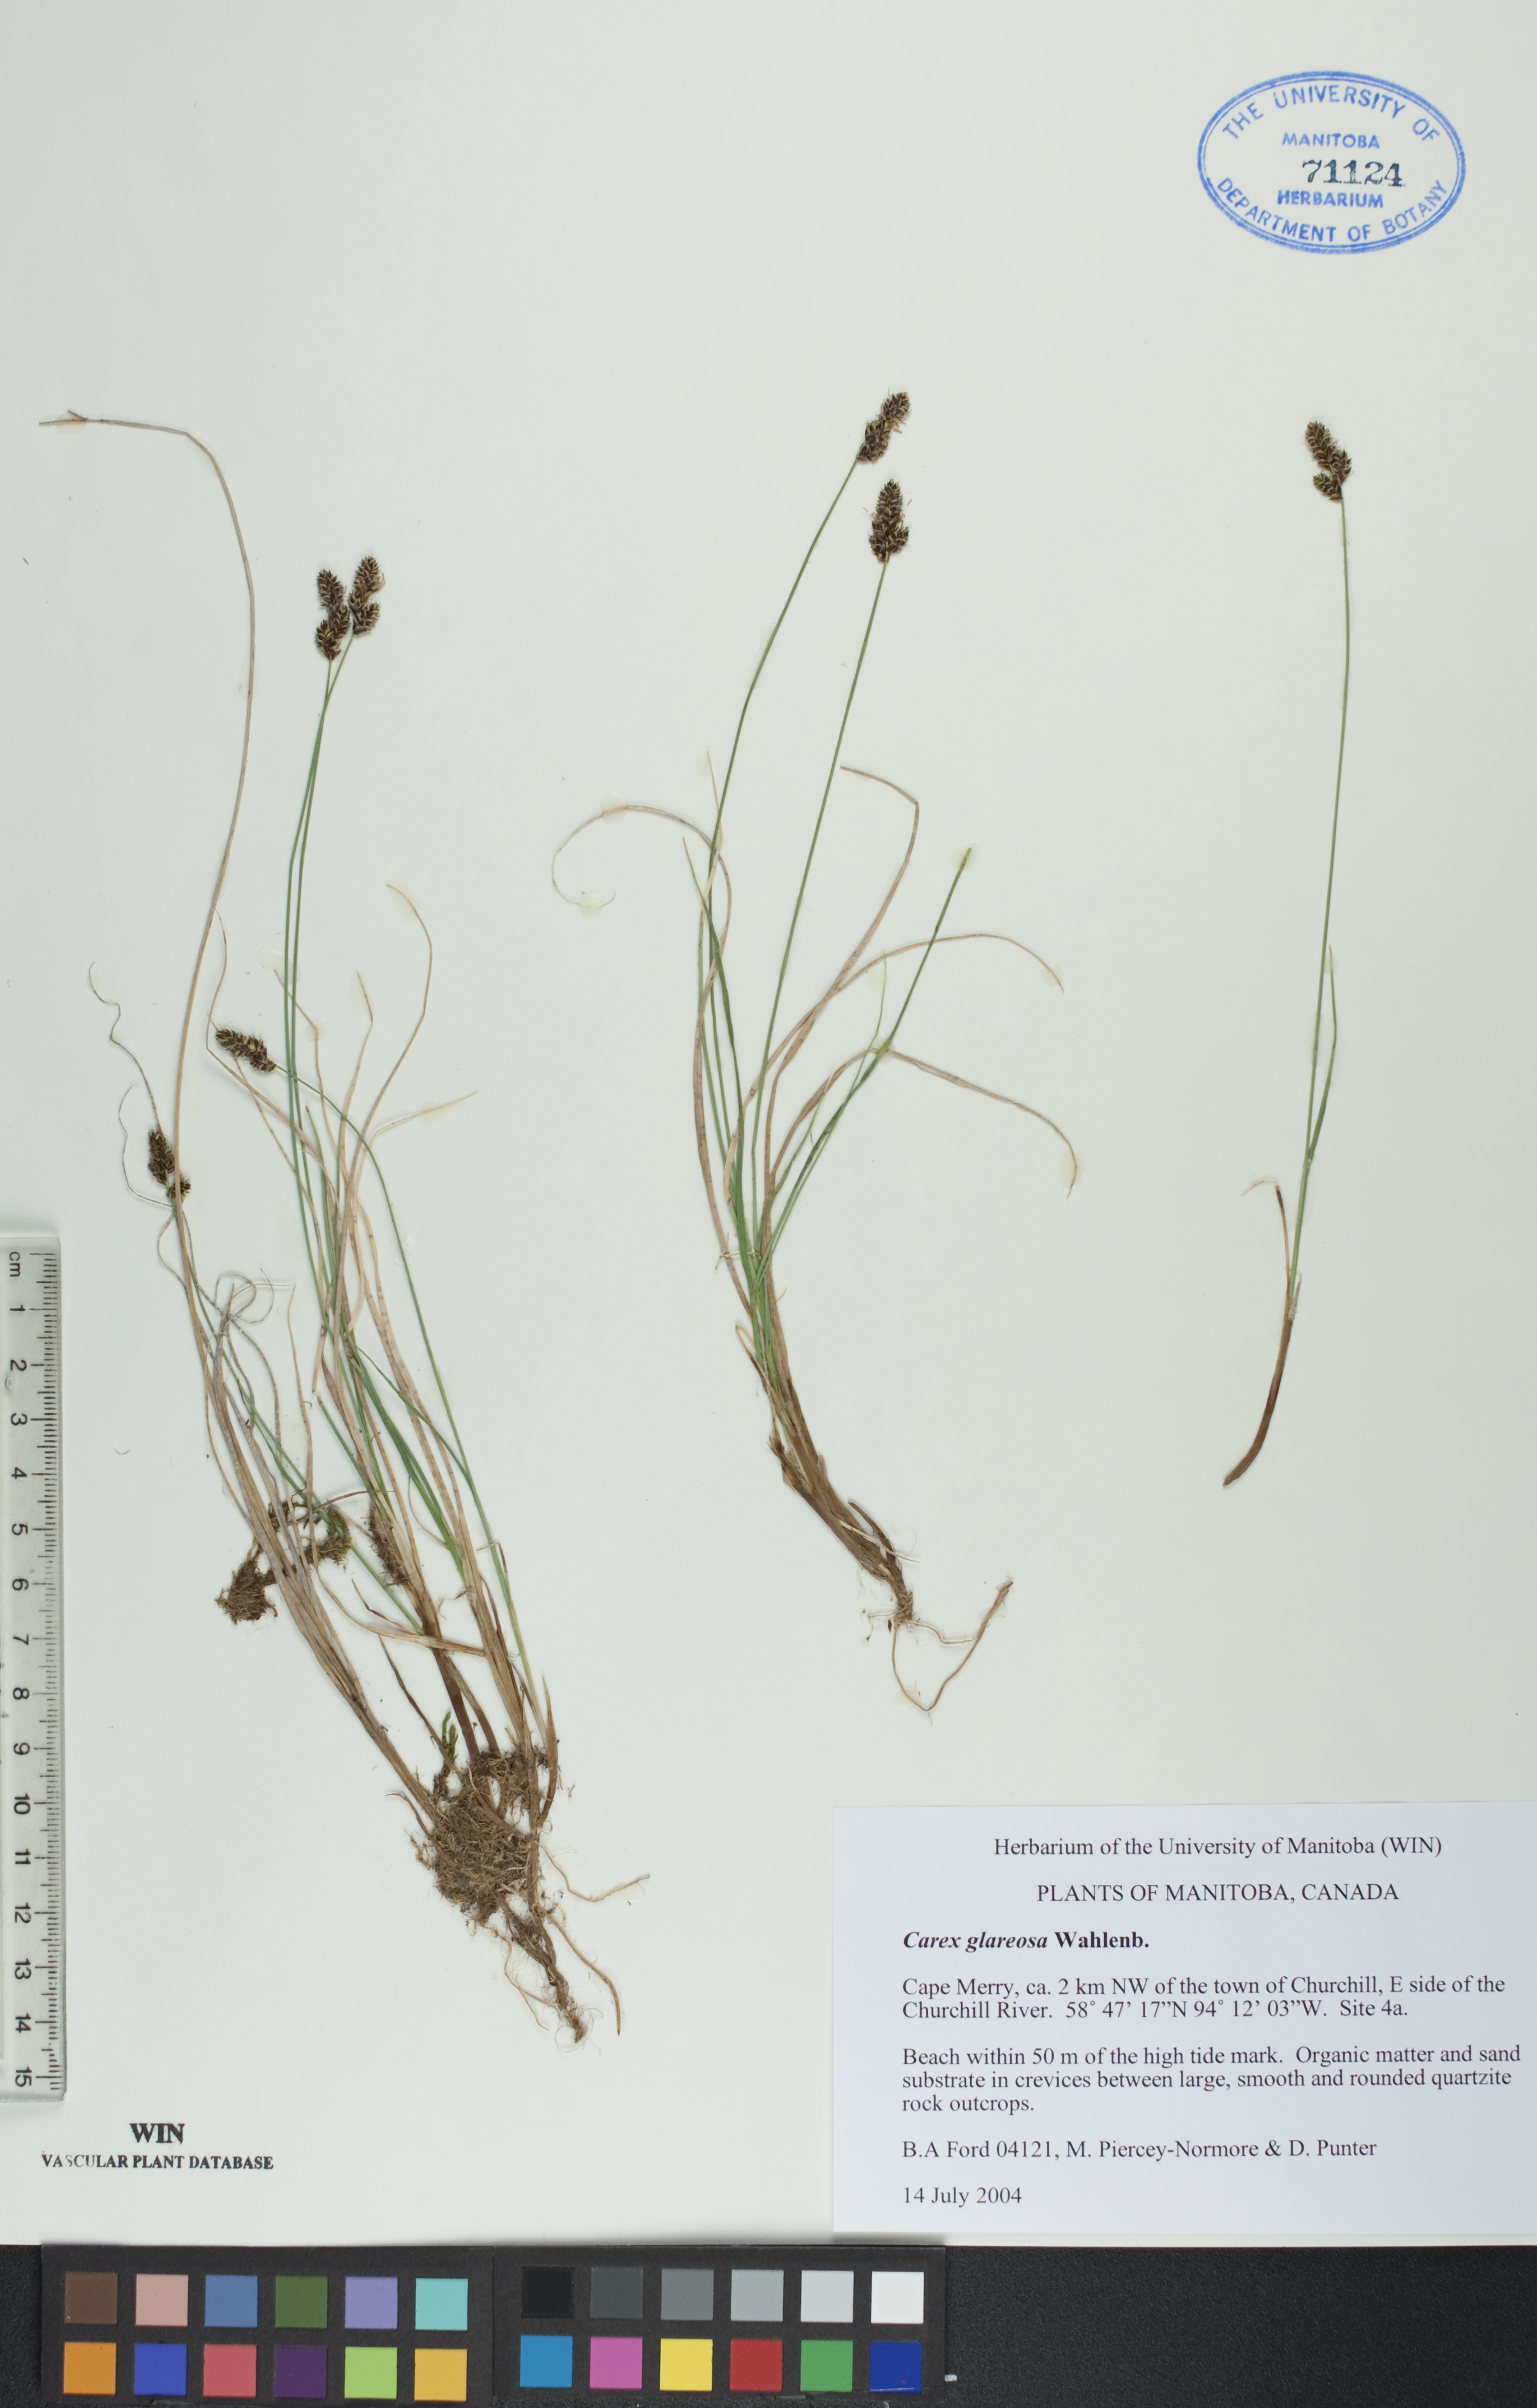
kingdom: Plantae
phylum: Tracheophyta
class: Liliopsida
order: Poales
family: Cyperaceae
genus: Carex
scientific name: Carex glareosa
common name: Clustered sedge
